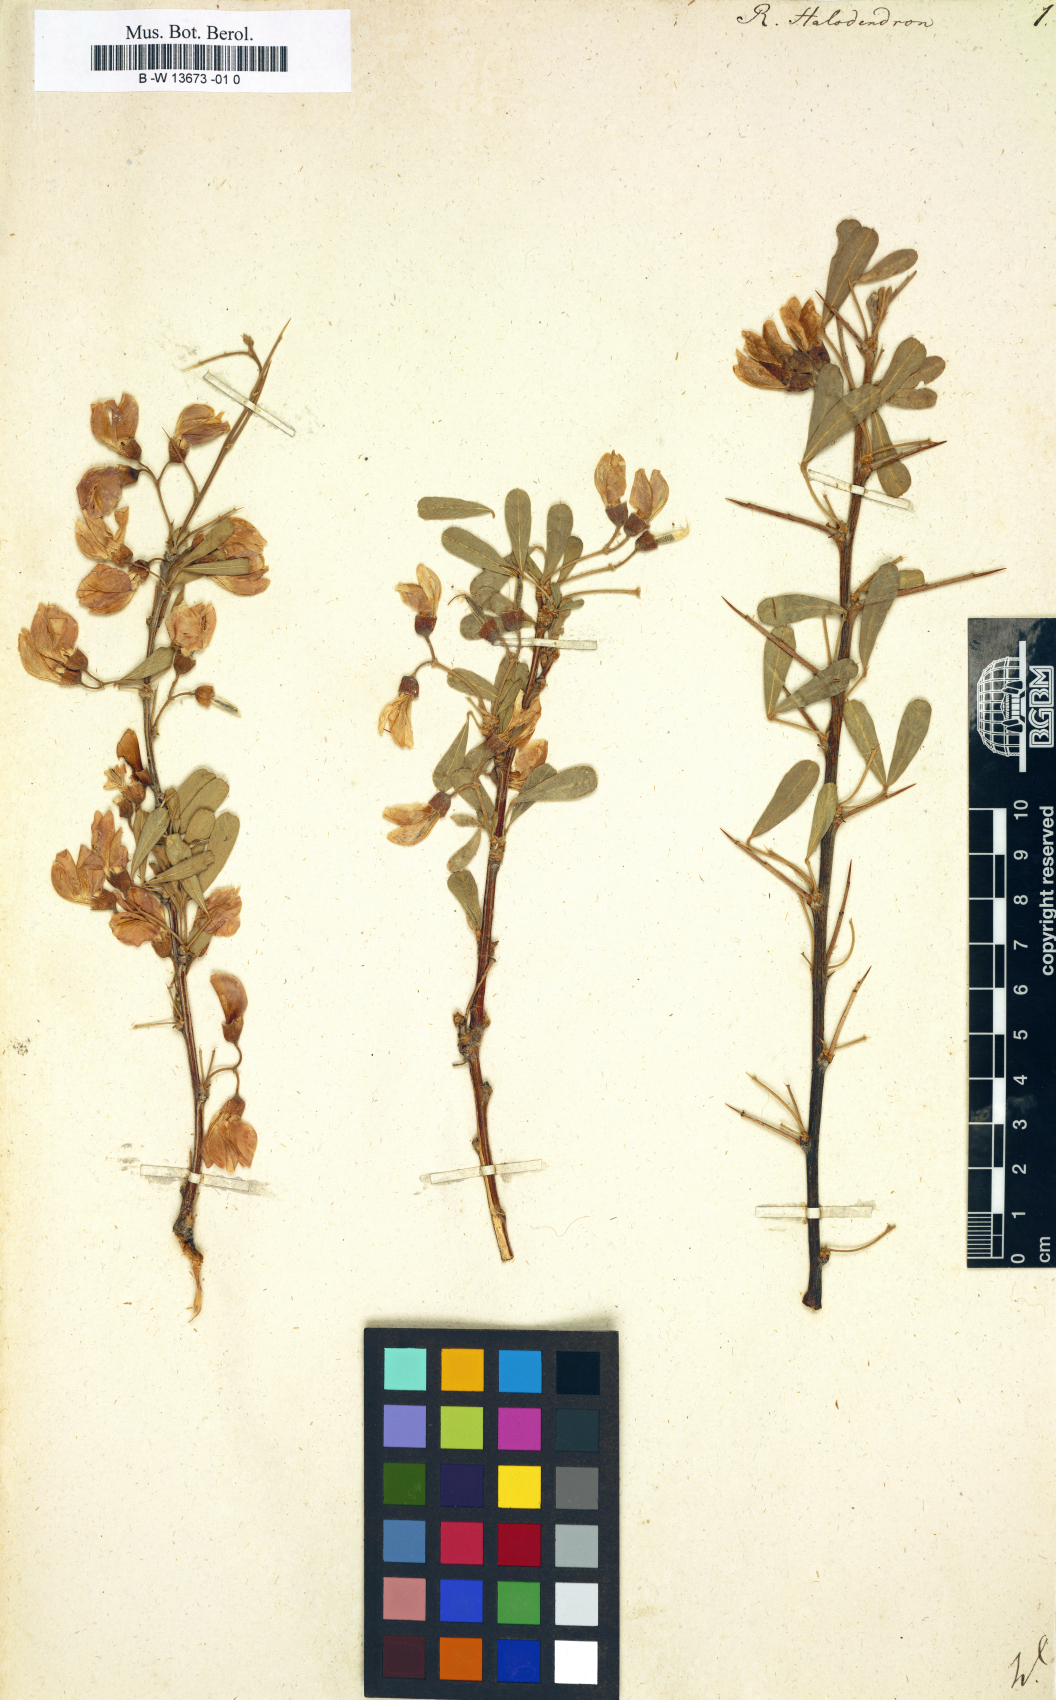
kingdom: Plantae
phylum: Tracheophyta
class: Magnoliopsida
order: Fabales
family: Fabaceae
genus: Caragana
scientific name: Caragana halodendron
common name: Siberian salt-tree
